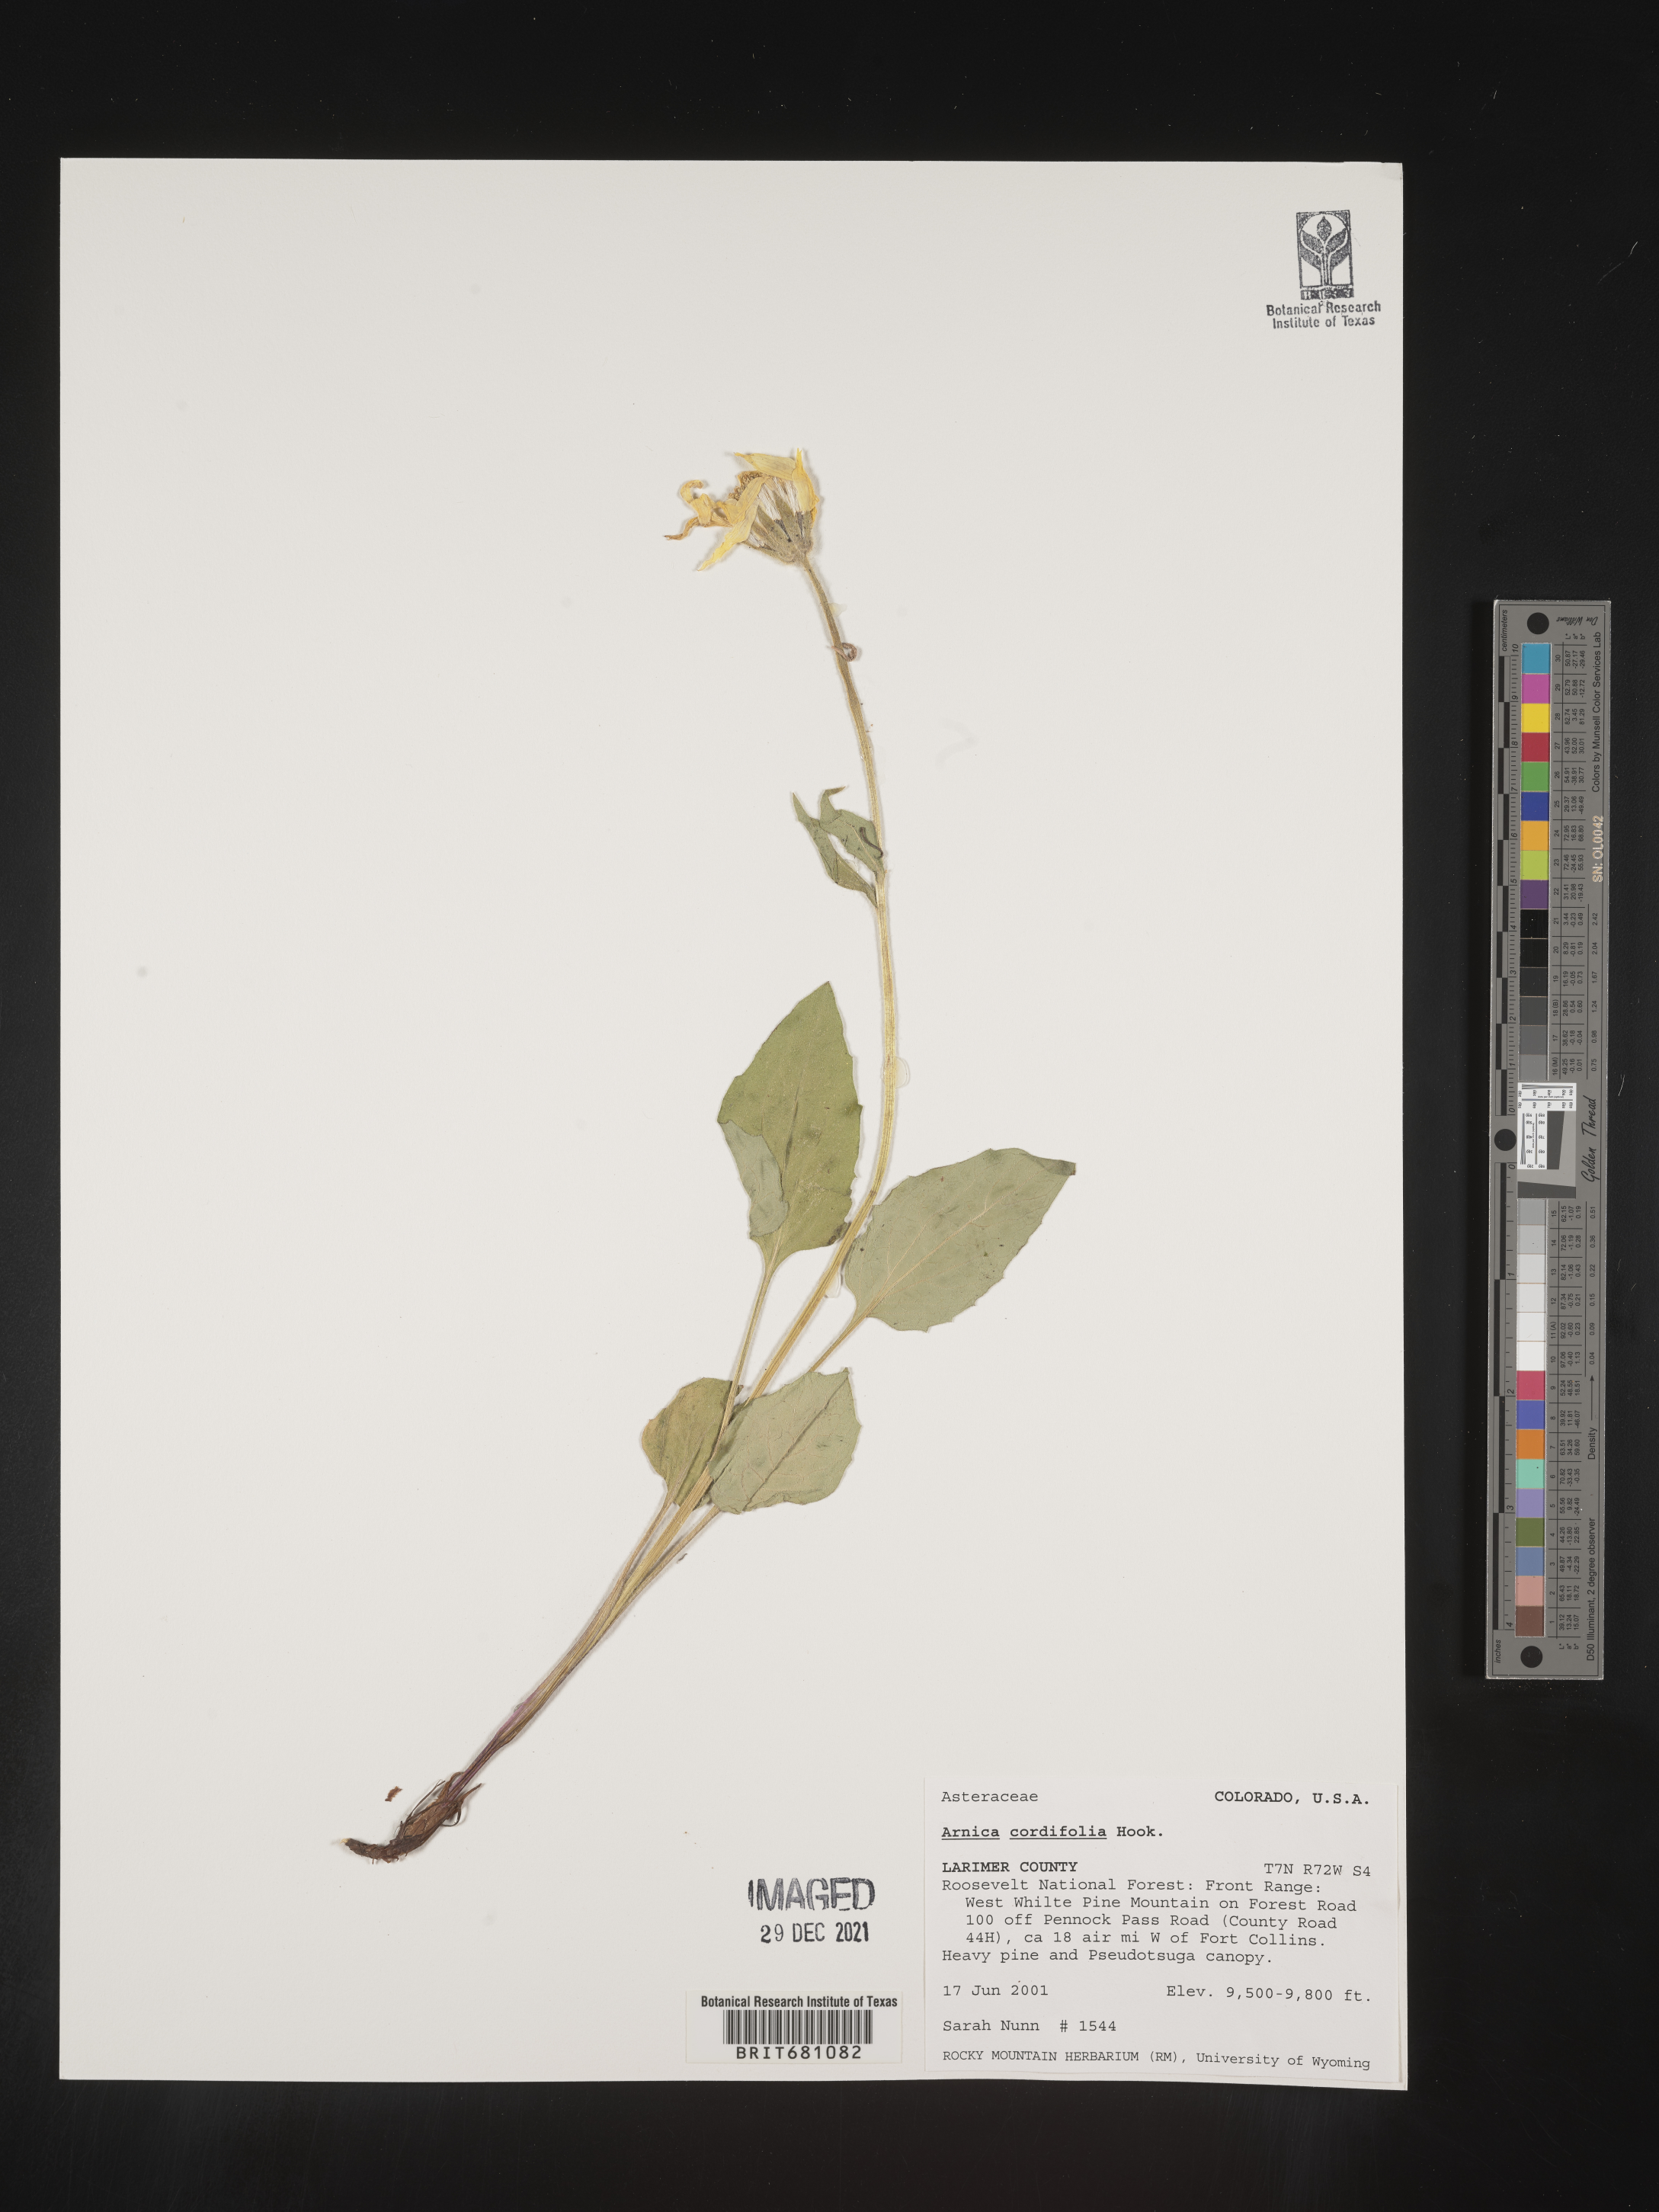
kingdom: Plantae
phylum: Tracheophyta
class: Magnoliopsida
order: Asterales
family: Asteraceae
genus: Arnica
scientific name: Arnica cordifolia
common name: Heart-leaf arnica
